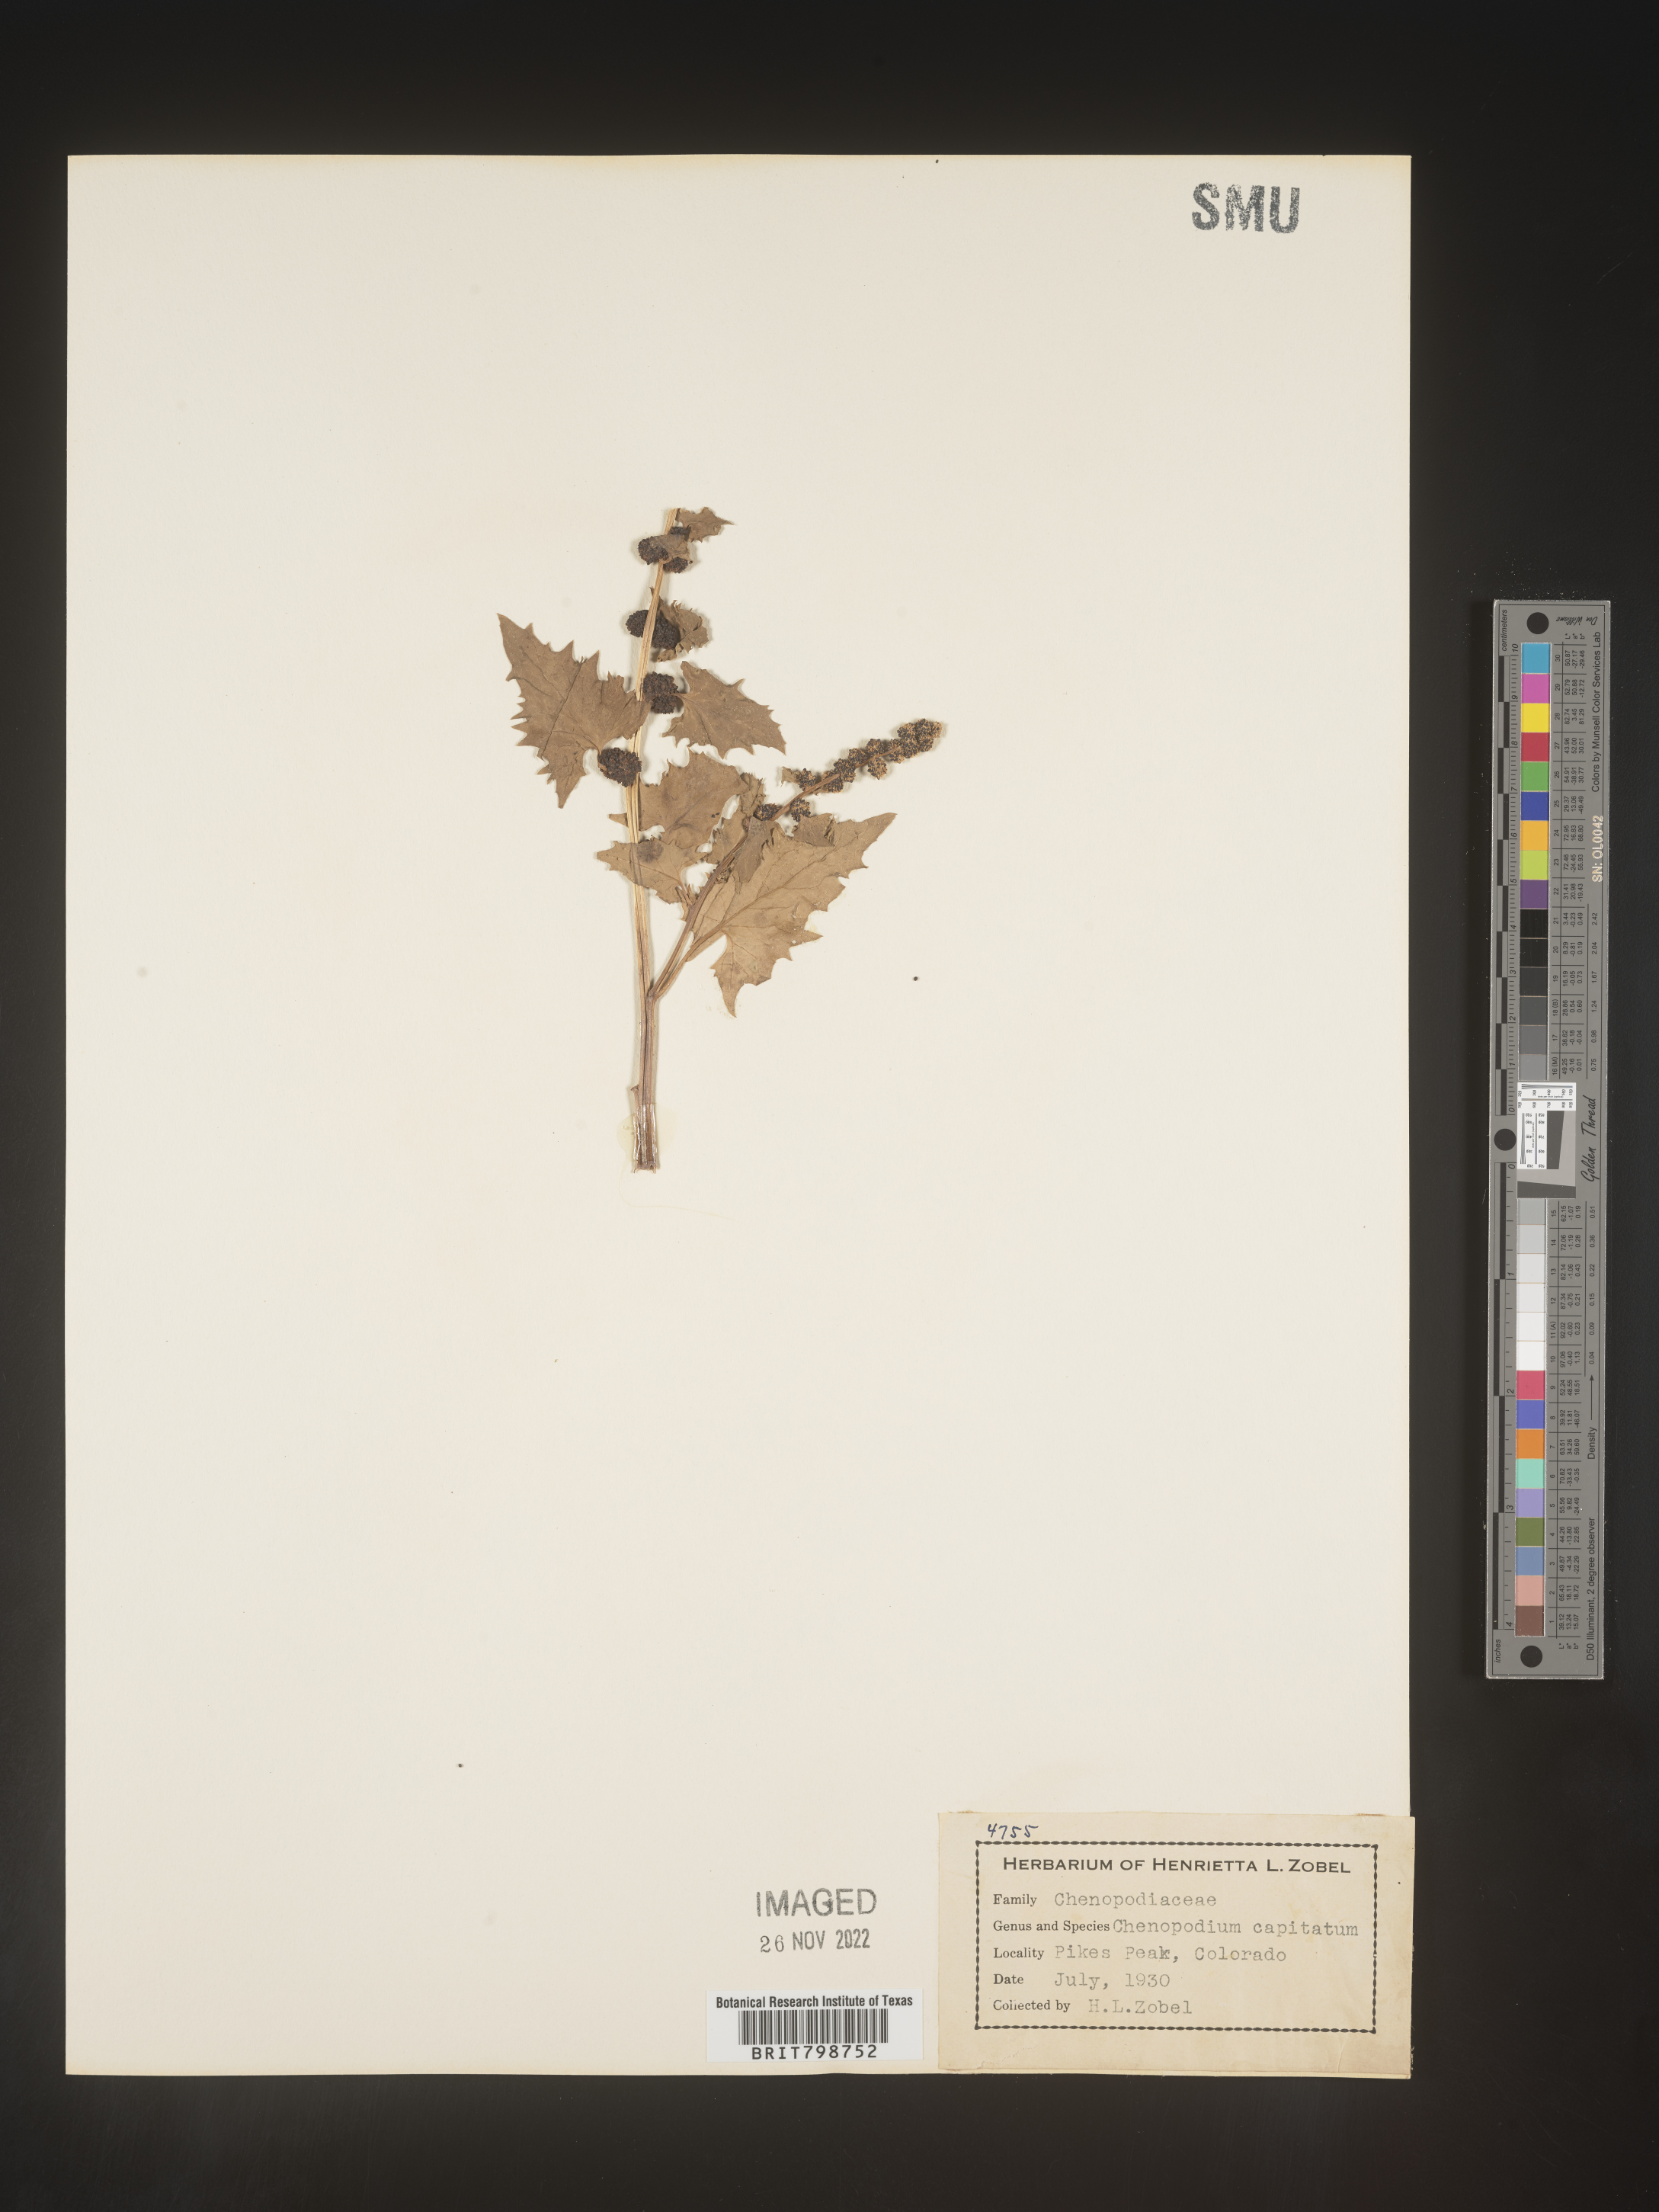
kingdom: Plantae
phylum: Tracheophyta
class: Magnoliopsida
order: Caryophyllales
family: Amaranthaceae
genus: Blitum
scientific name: Blitum capitatum
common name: Strawberry-blight
